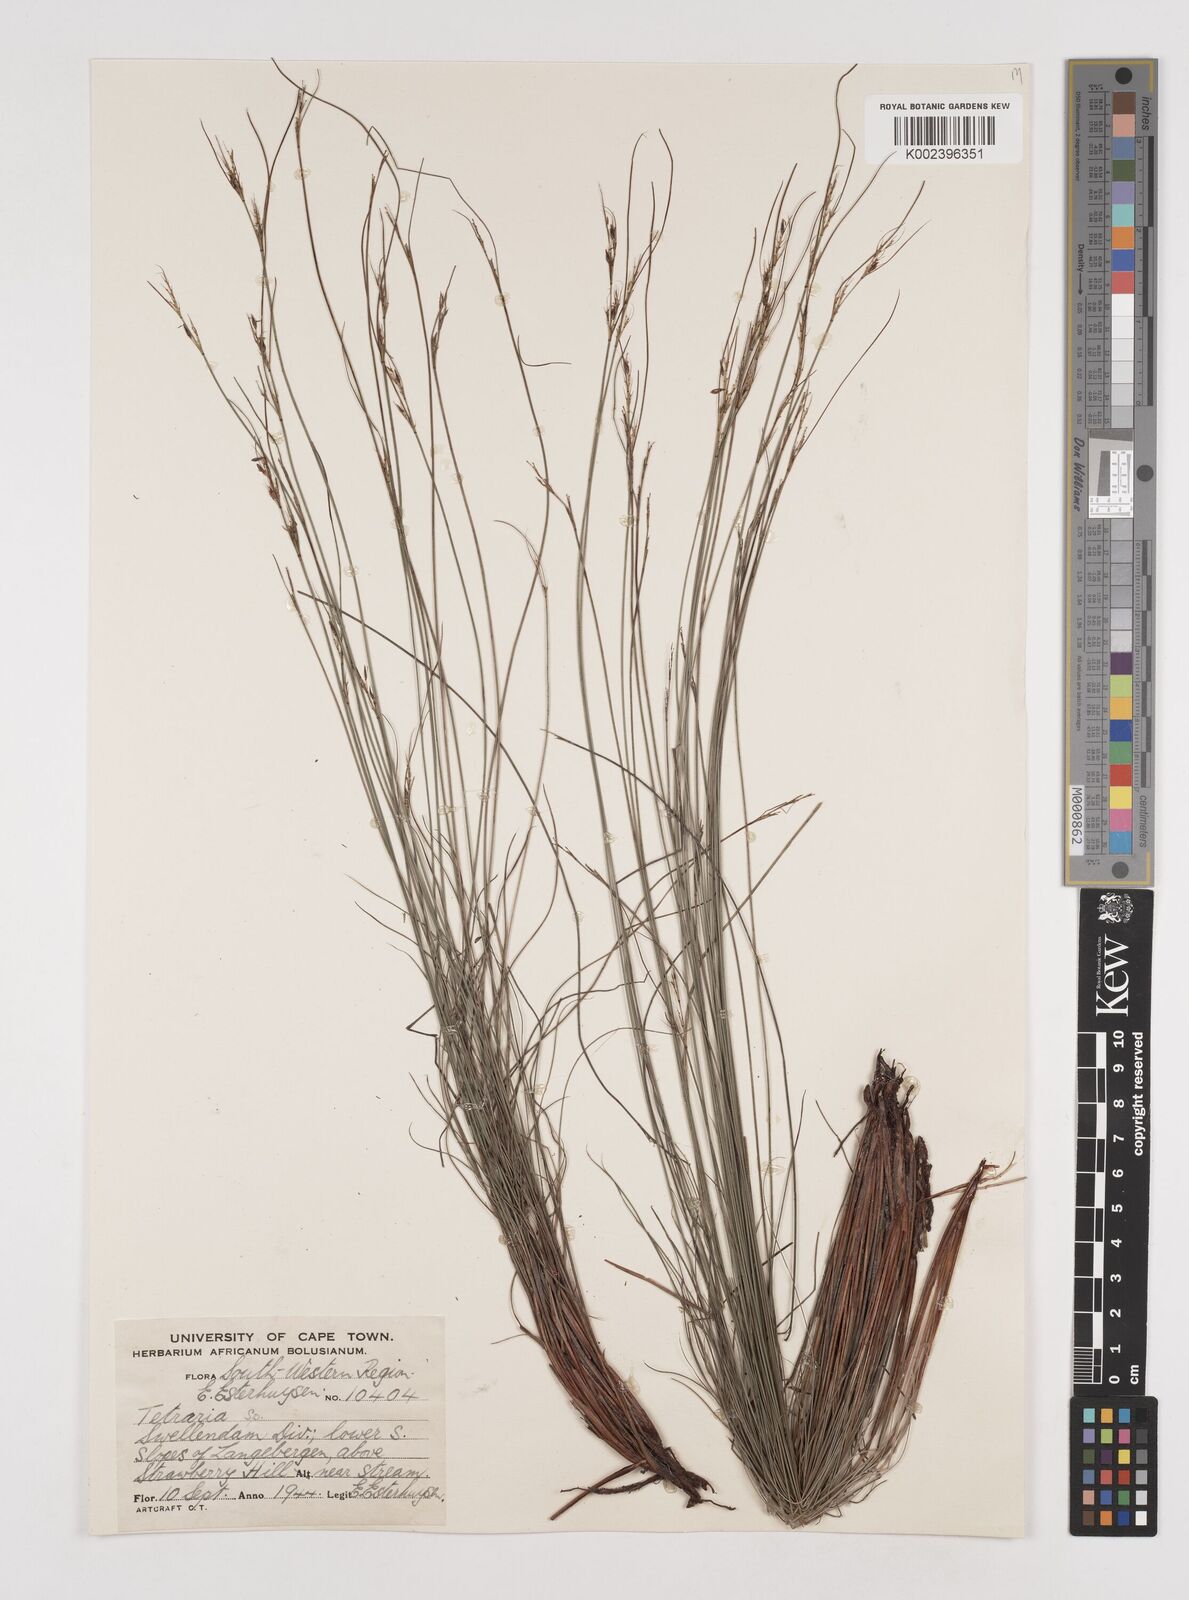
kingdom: Plantae
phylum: Tracheophyta
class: Liliopsida
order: Poales
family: Cyperaceae
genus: Schoenus
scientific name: Schoenus cuspidatus
